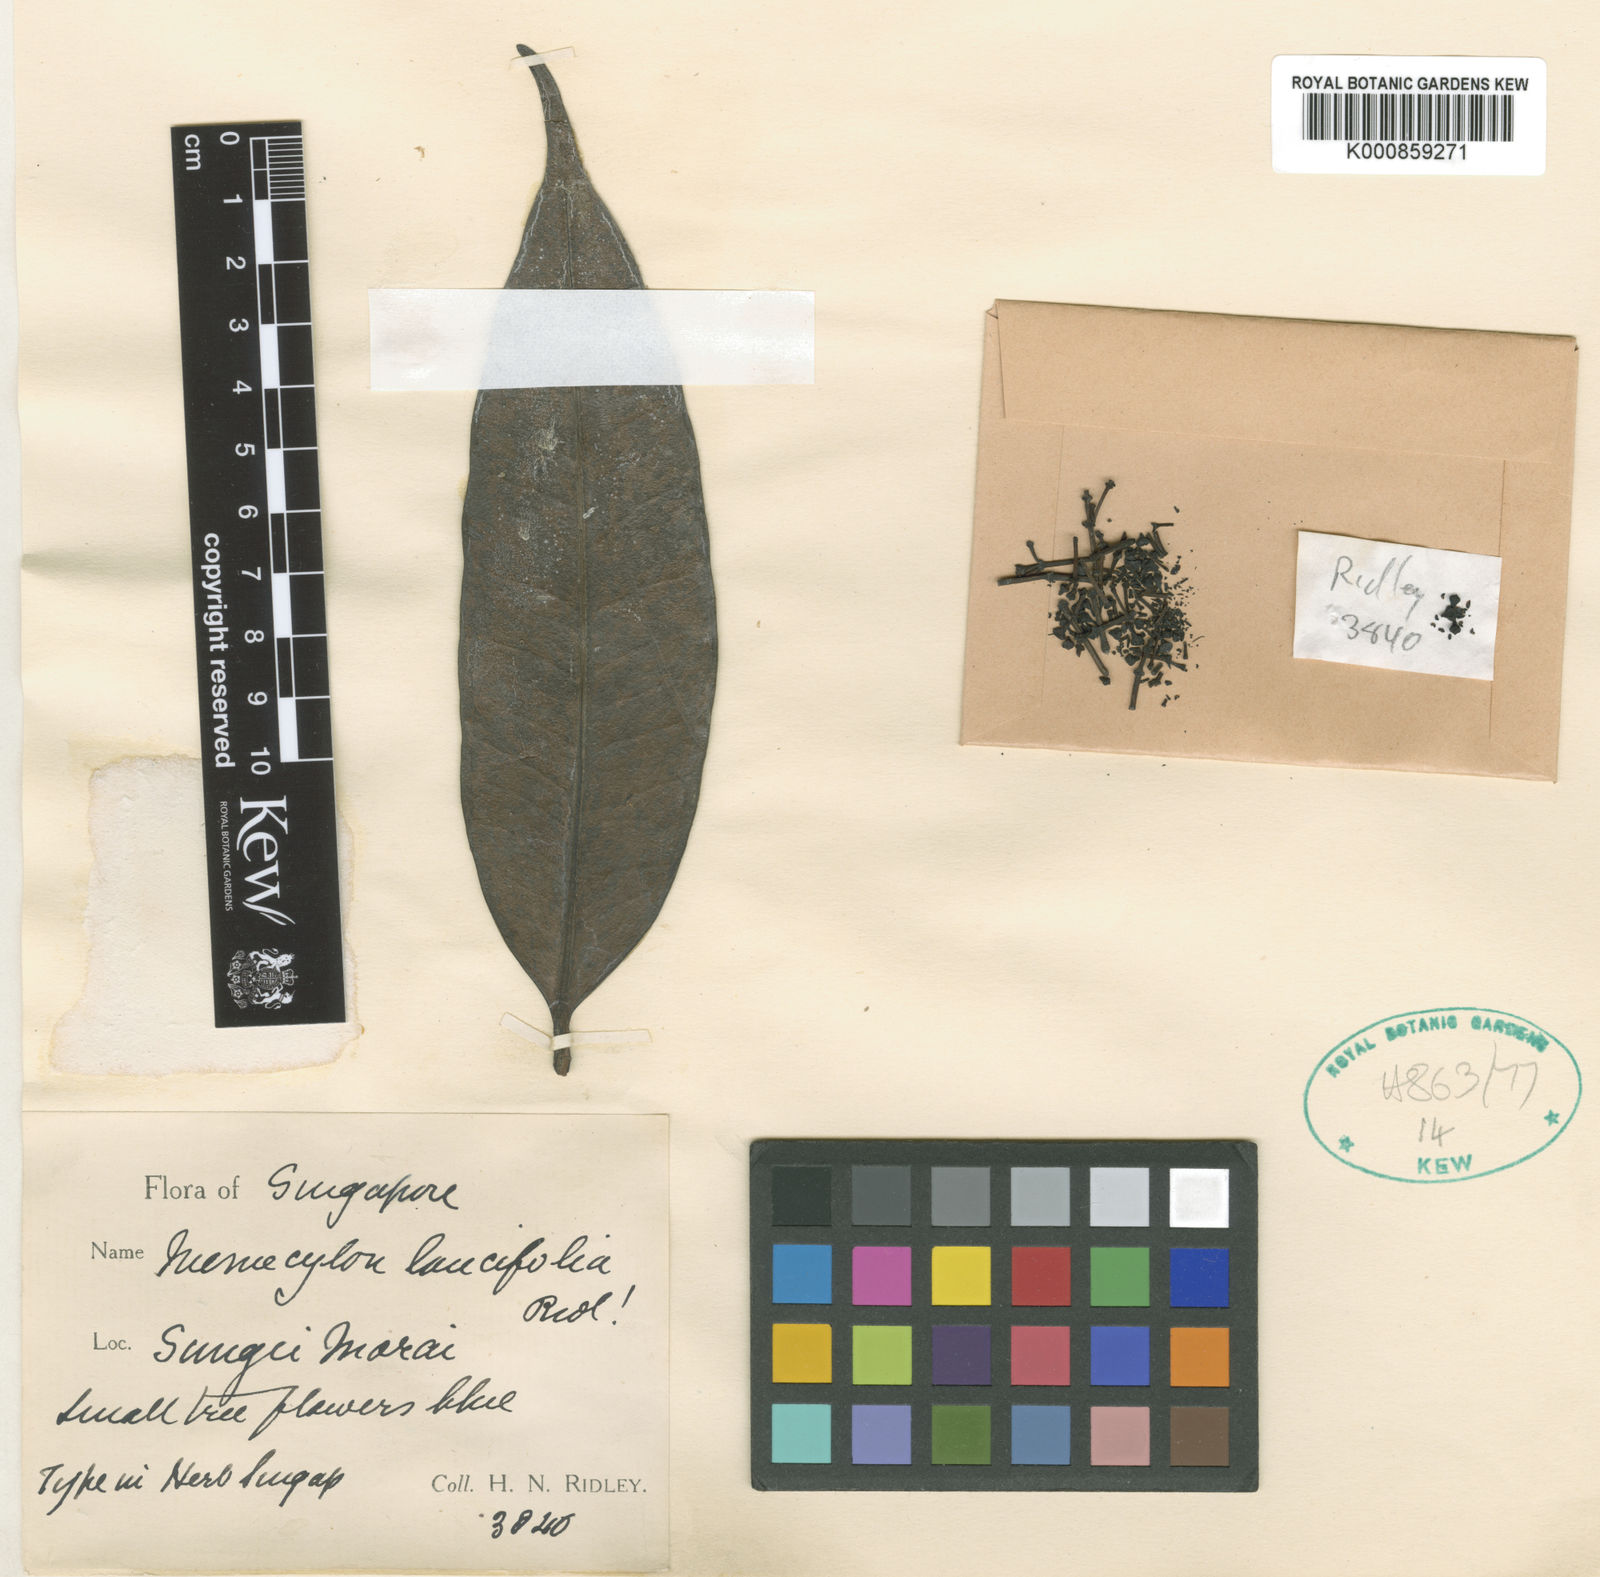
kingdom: Plantae
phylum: Tracheophyta
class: Magnoliopsida
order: Myrtales
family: Melastomataceae
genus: Memecylon
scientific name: Memecylon lancifolium
